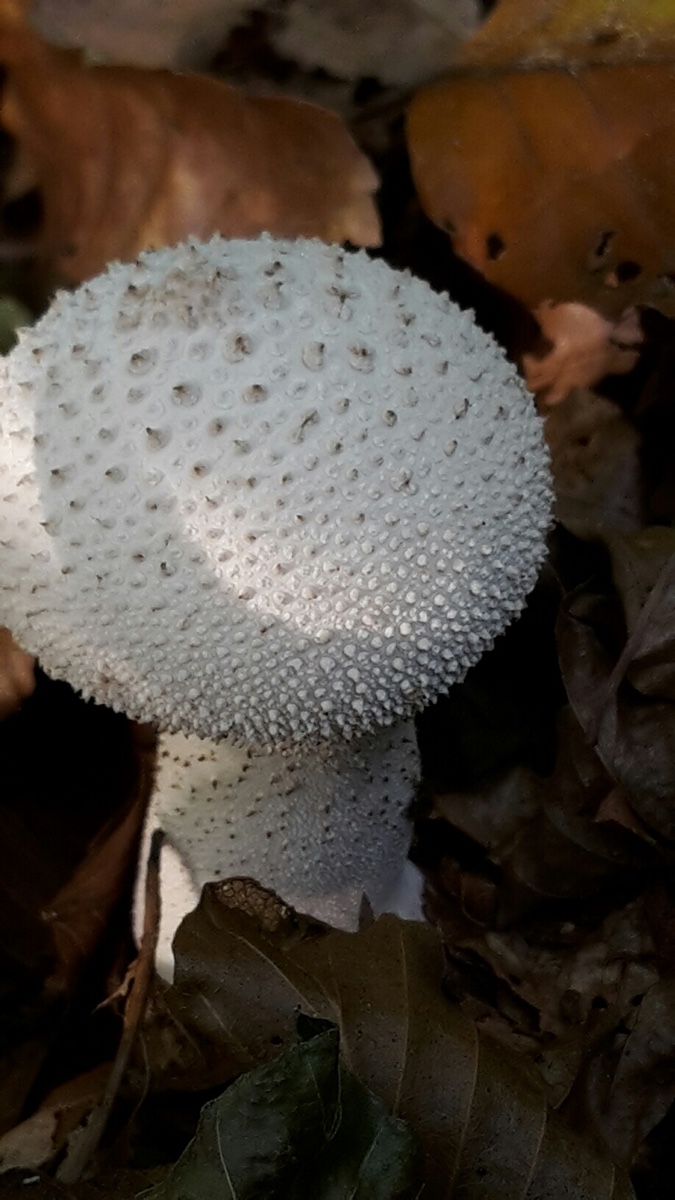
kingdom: Fungi
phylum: Basidiomycota
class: Agaricomycetes
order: Agaricales
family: Lycoperdaceae
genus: Lycoperdon
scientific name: Lycoperdon perlatum
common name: krystal-støvbold
